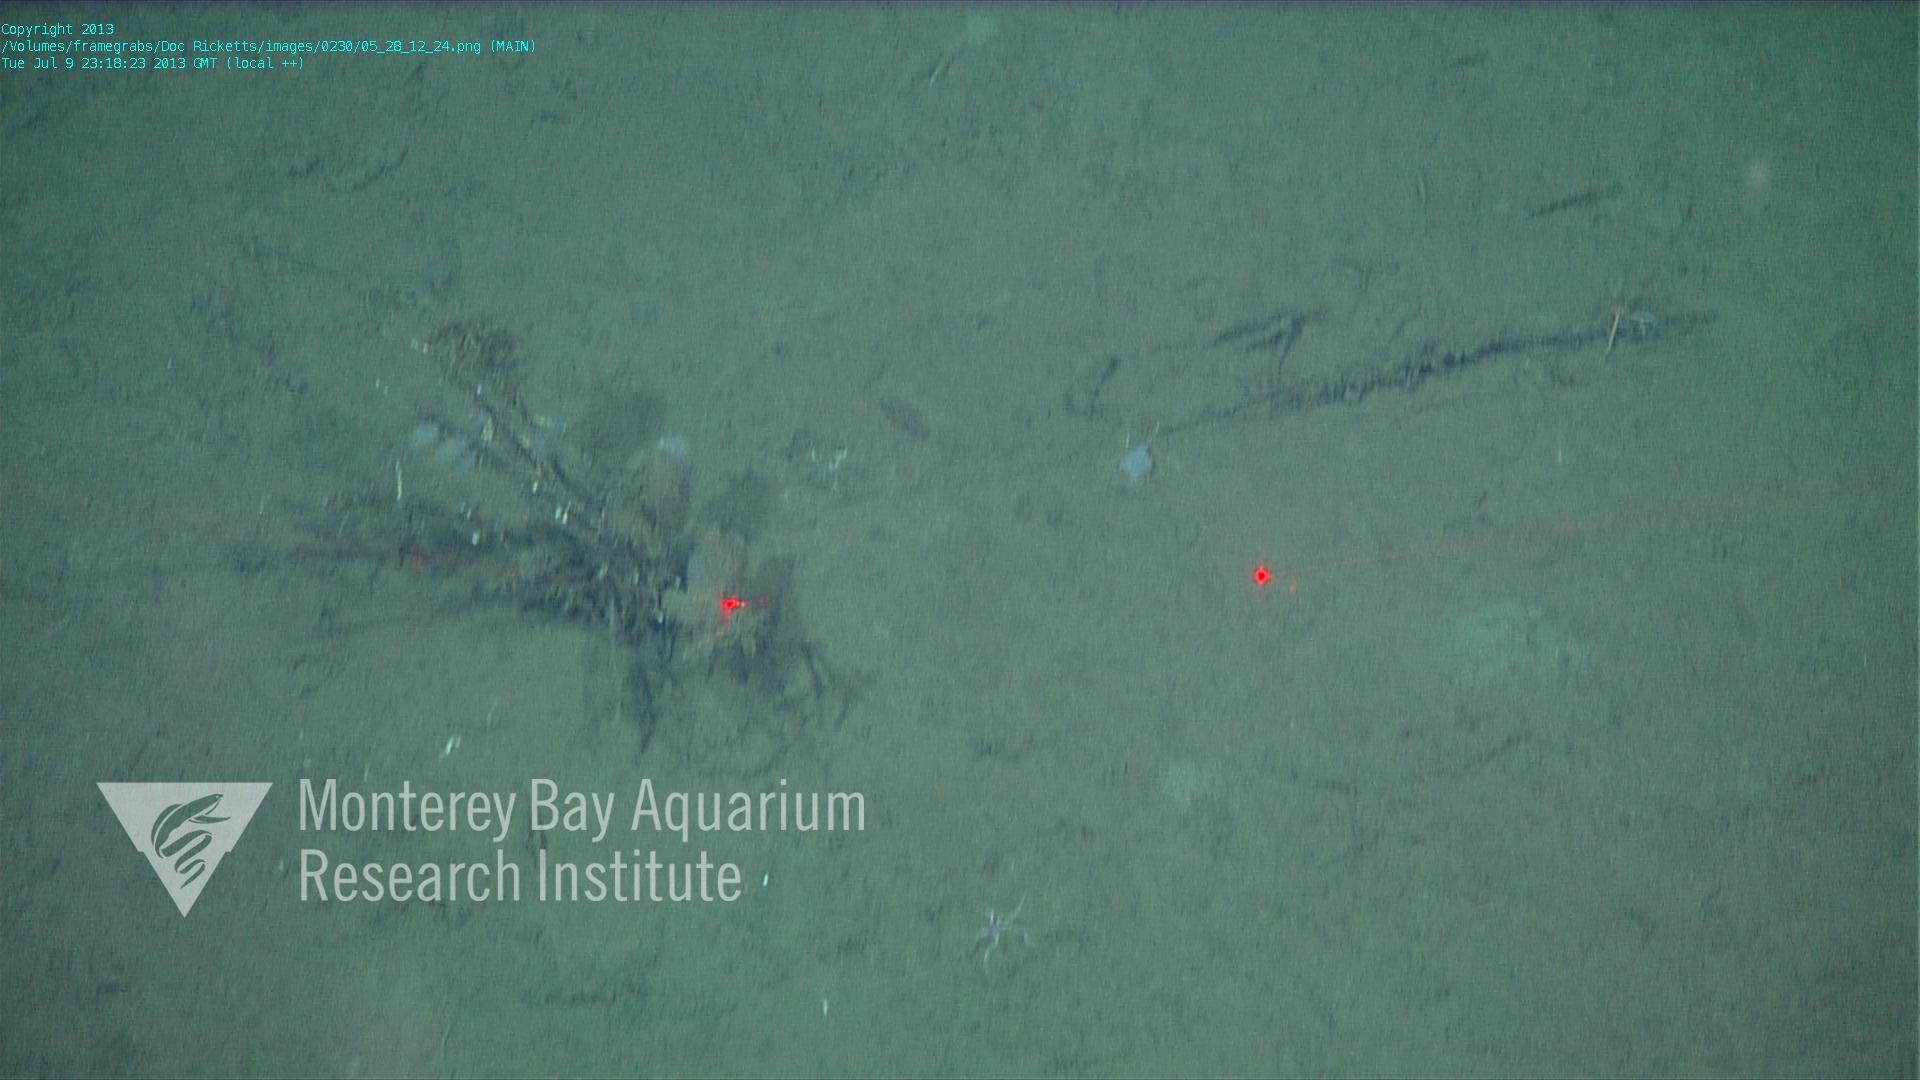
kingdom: Animalia
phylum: Porifera
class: Hexactinellida
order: Lyssacinosida
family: Rossellidae
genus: Bathydorus
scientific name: Bathydorus spinosus
